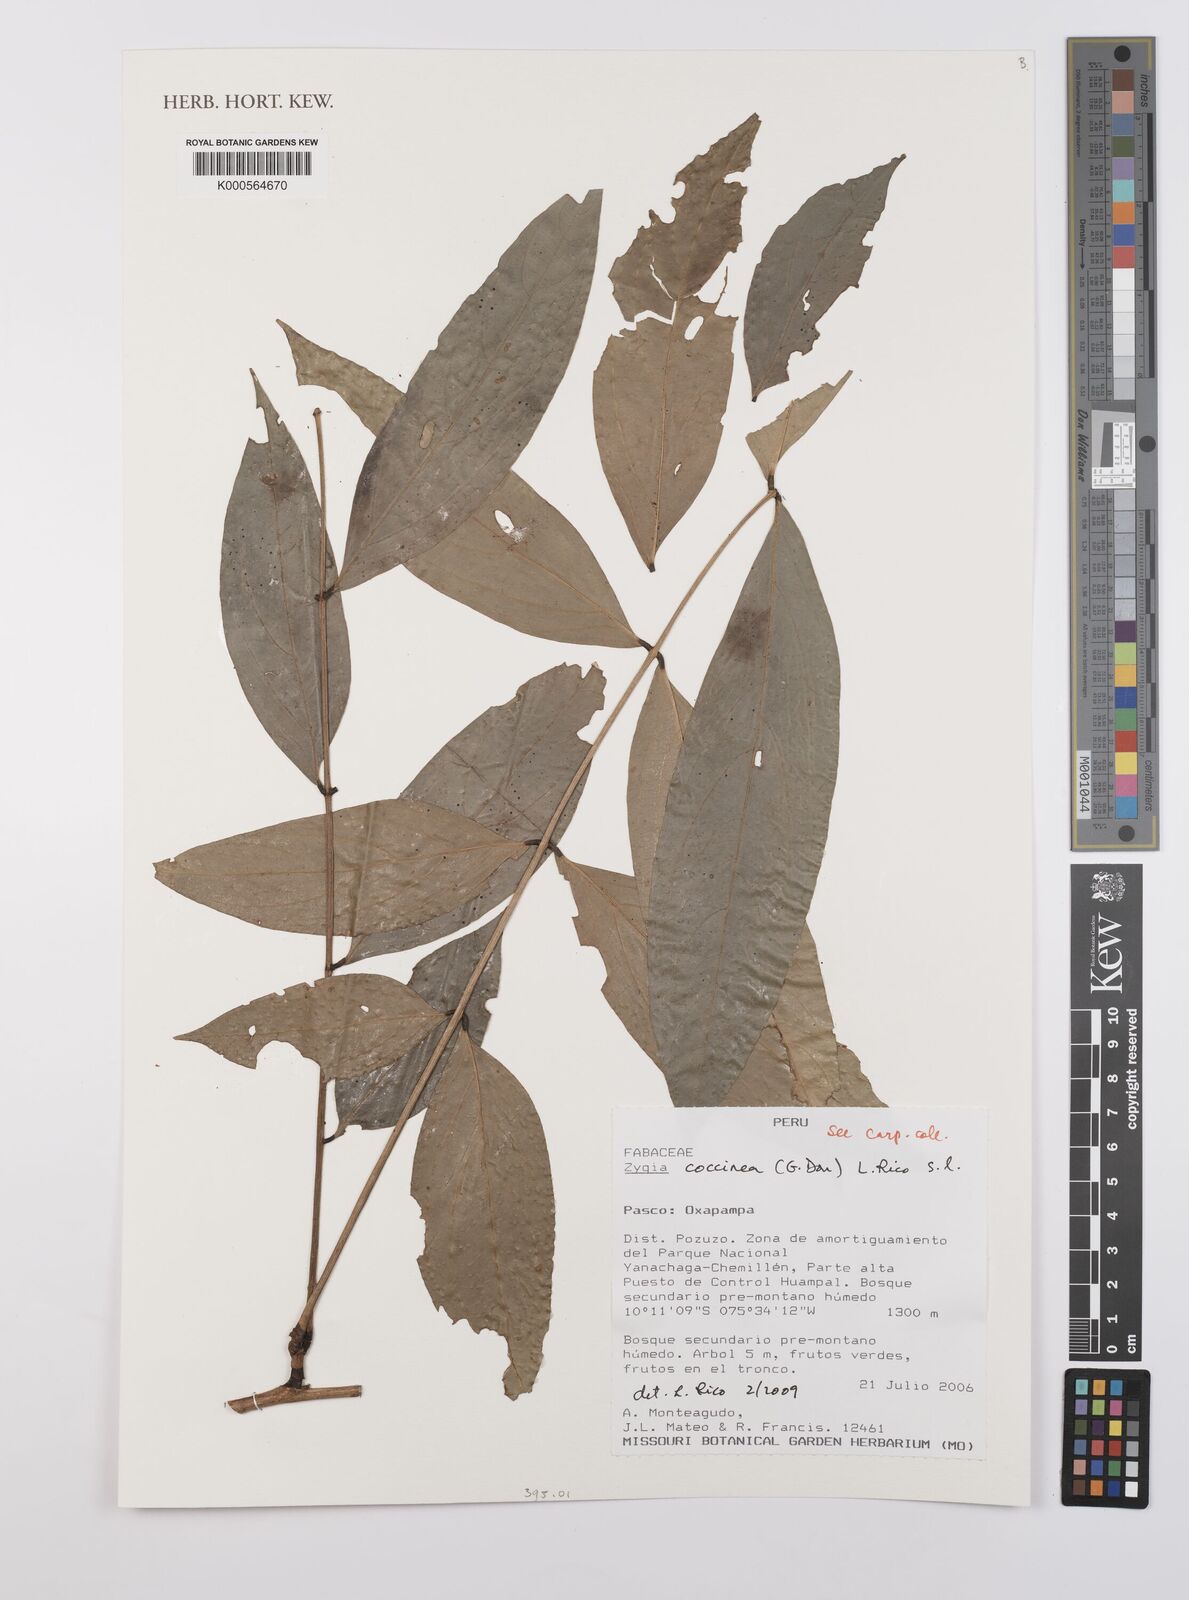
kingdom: Plantae
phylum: Tracheophyta
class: Magnoliopsida
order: Fabales
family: Fabaceae
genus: Zygia
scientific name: Zygia coccinea
